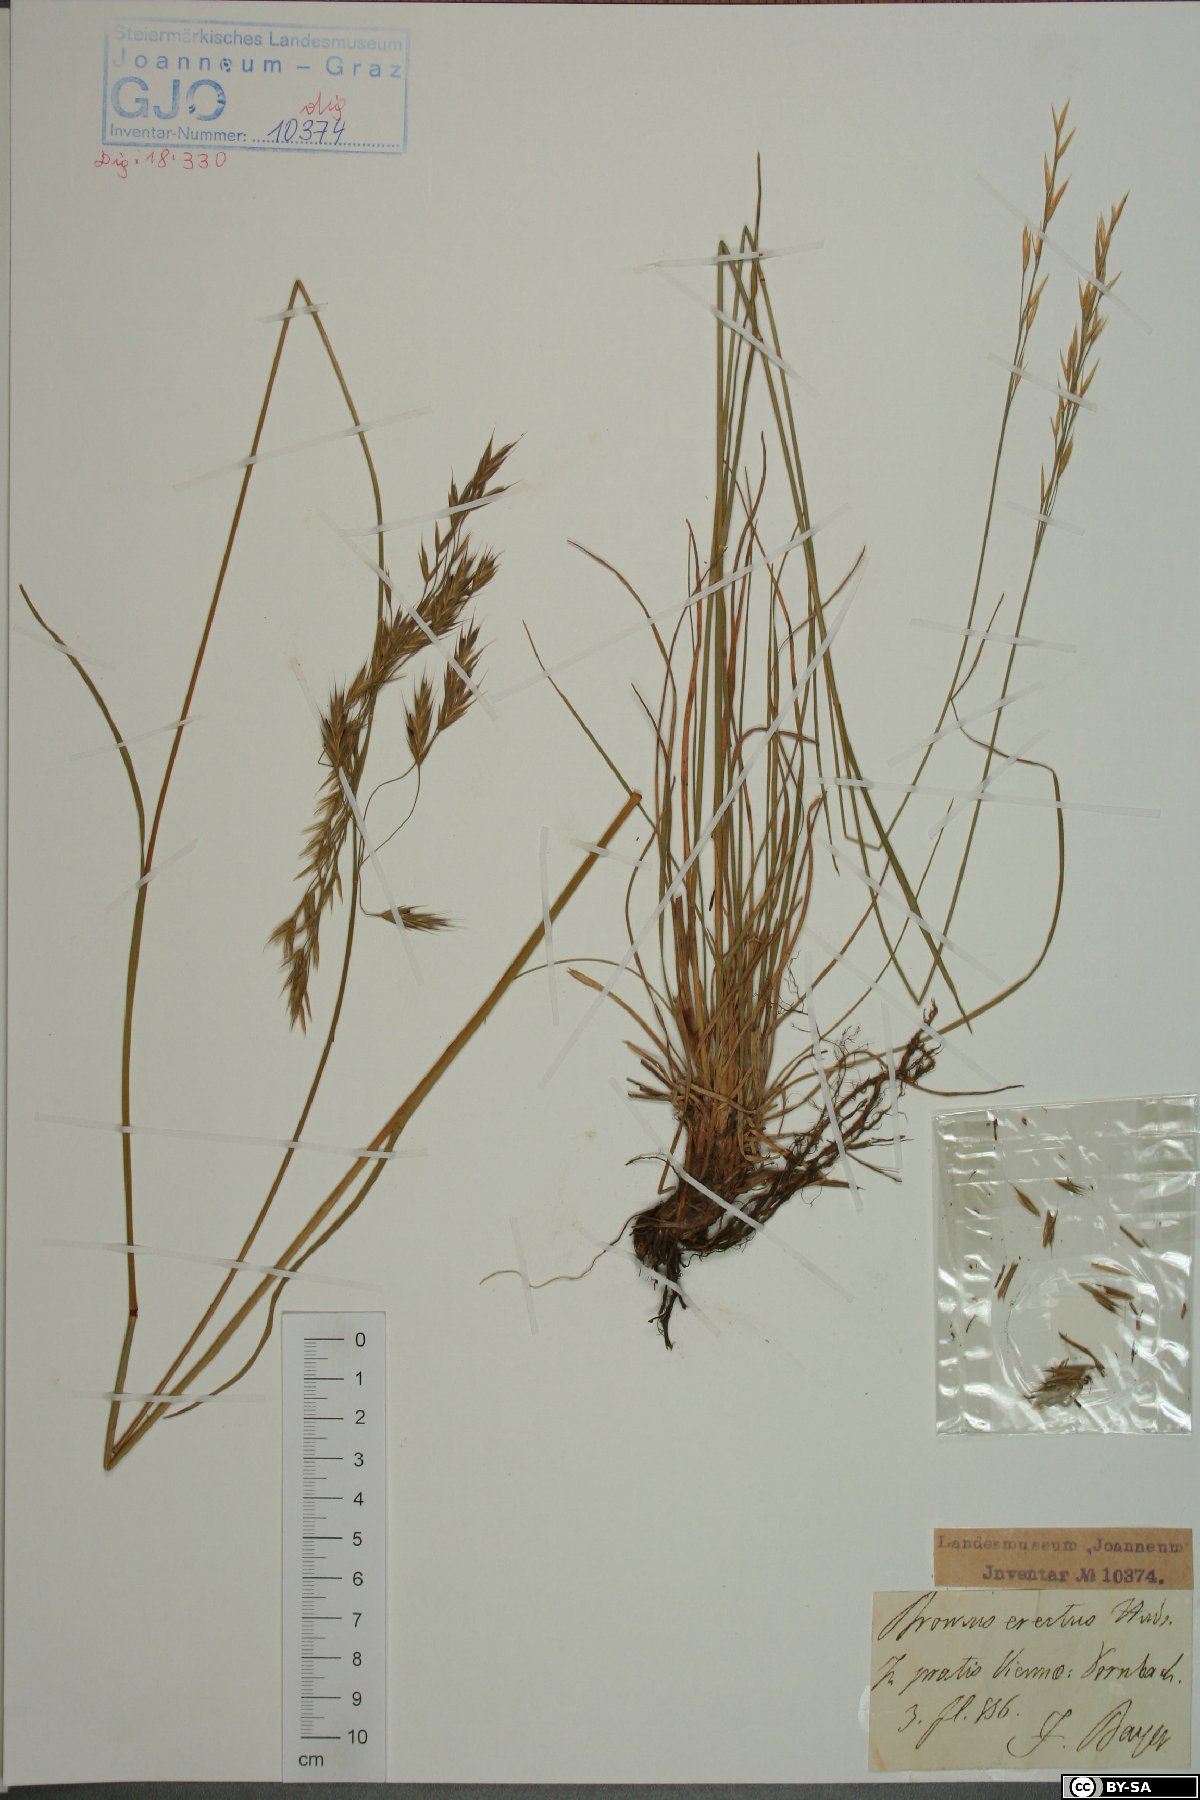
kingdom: Plantae
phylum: Tracheophyta
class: Liliopsida
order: Poales
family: Poaceae
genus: Bromus
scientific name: Bromus erectus
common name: Erect brome
